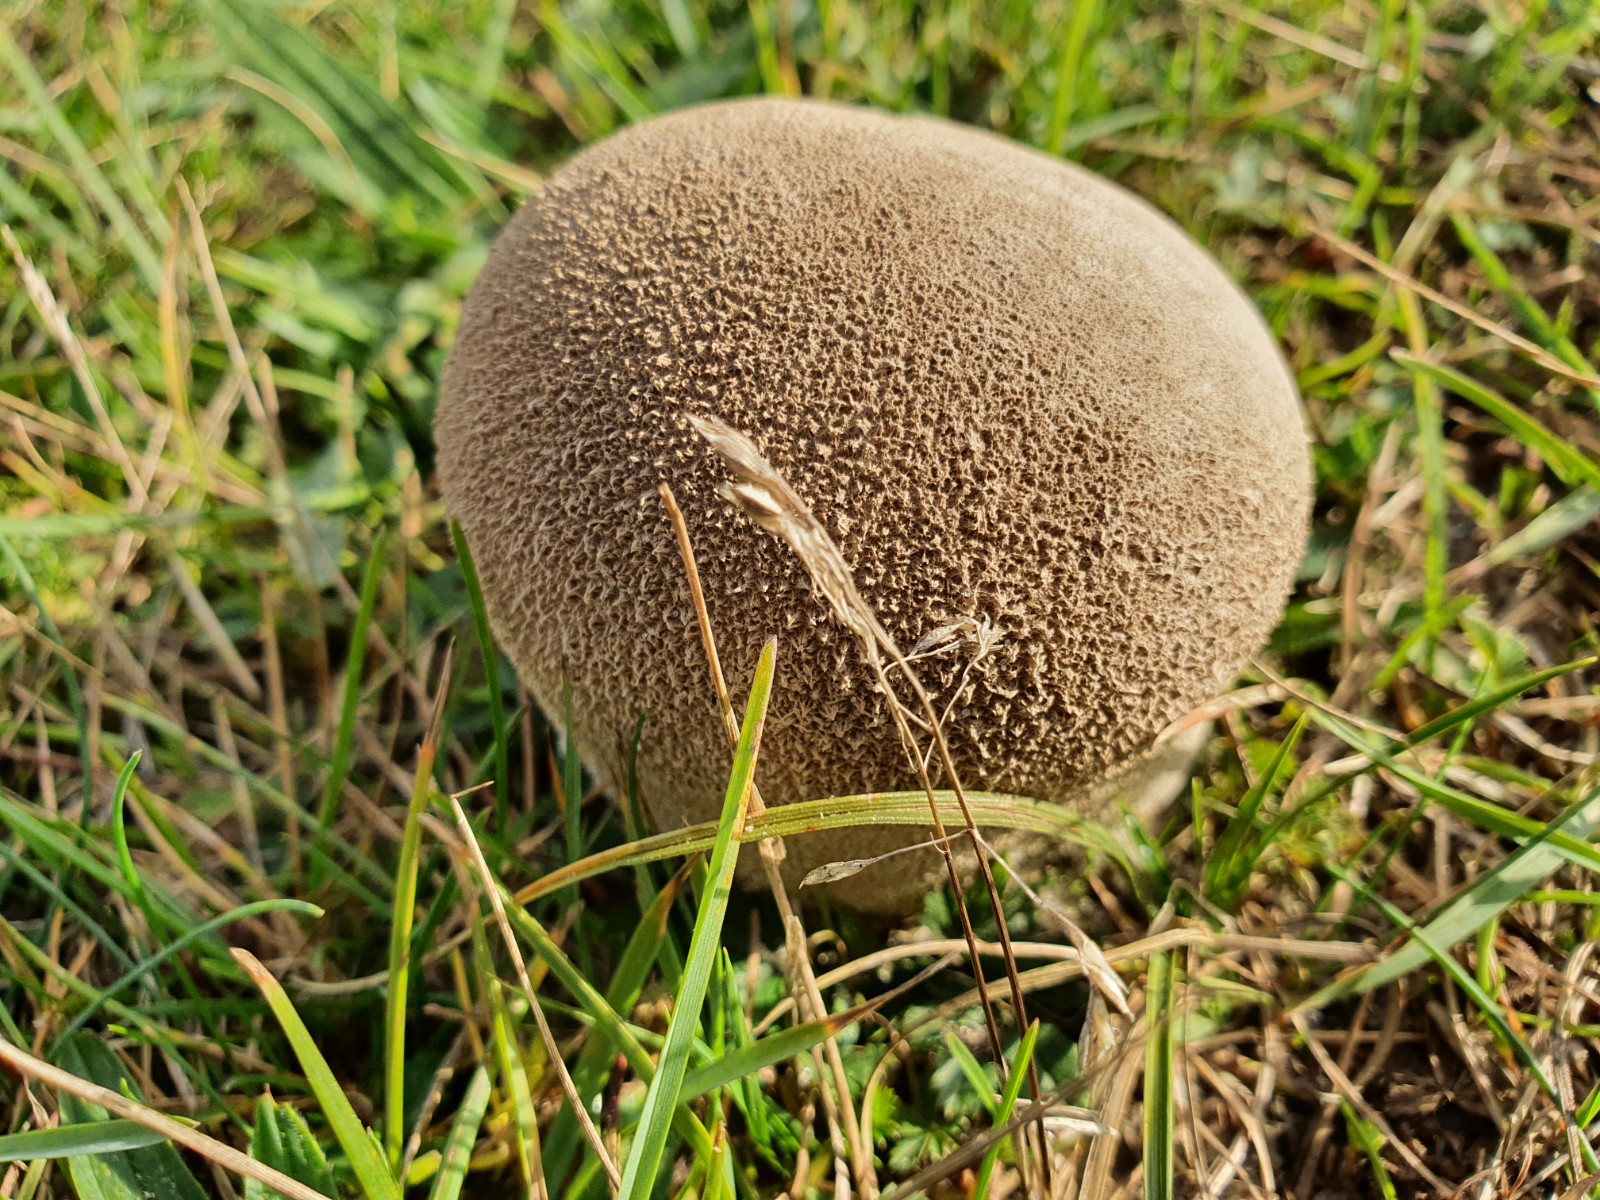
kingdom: Fungi
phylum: Basidiomycota
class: Agaricomycetes
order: Agaricales
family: Lycoperdaceae
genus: Bovistella
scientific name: Bovistella utriformis
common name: skællet støvbold
